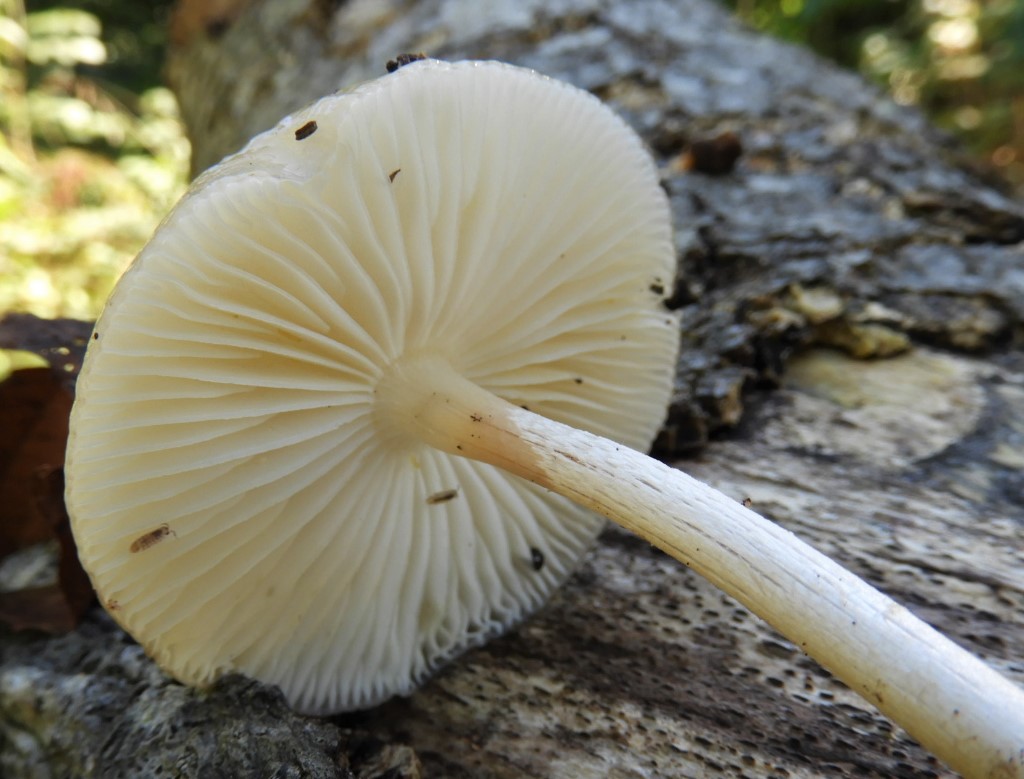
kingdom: Fungi
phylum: Basidiomycota
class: Agaricomycetes
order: Agaricales
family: Physalacriaceae
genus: Mucidula
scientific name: Mucidula mucida
